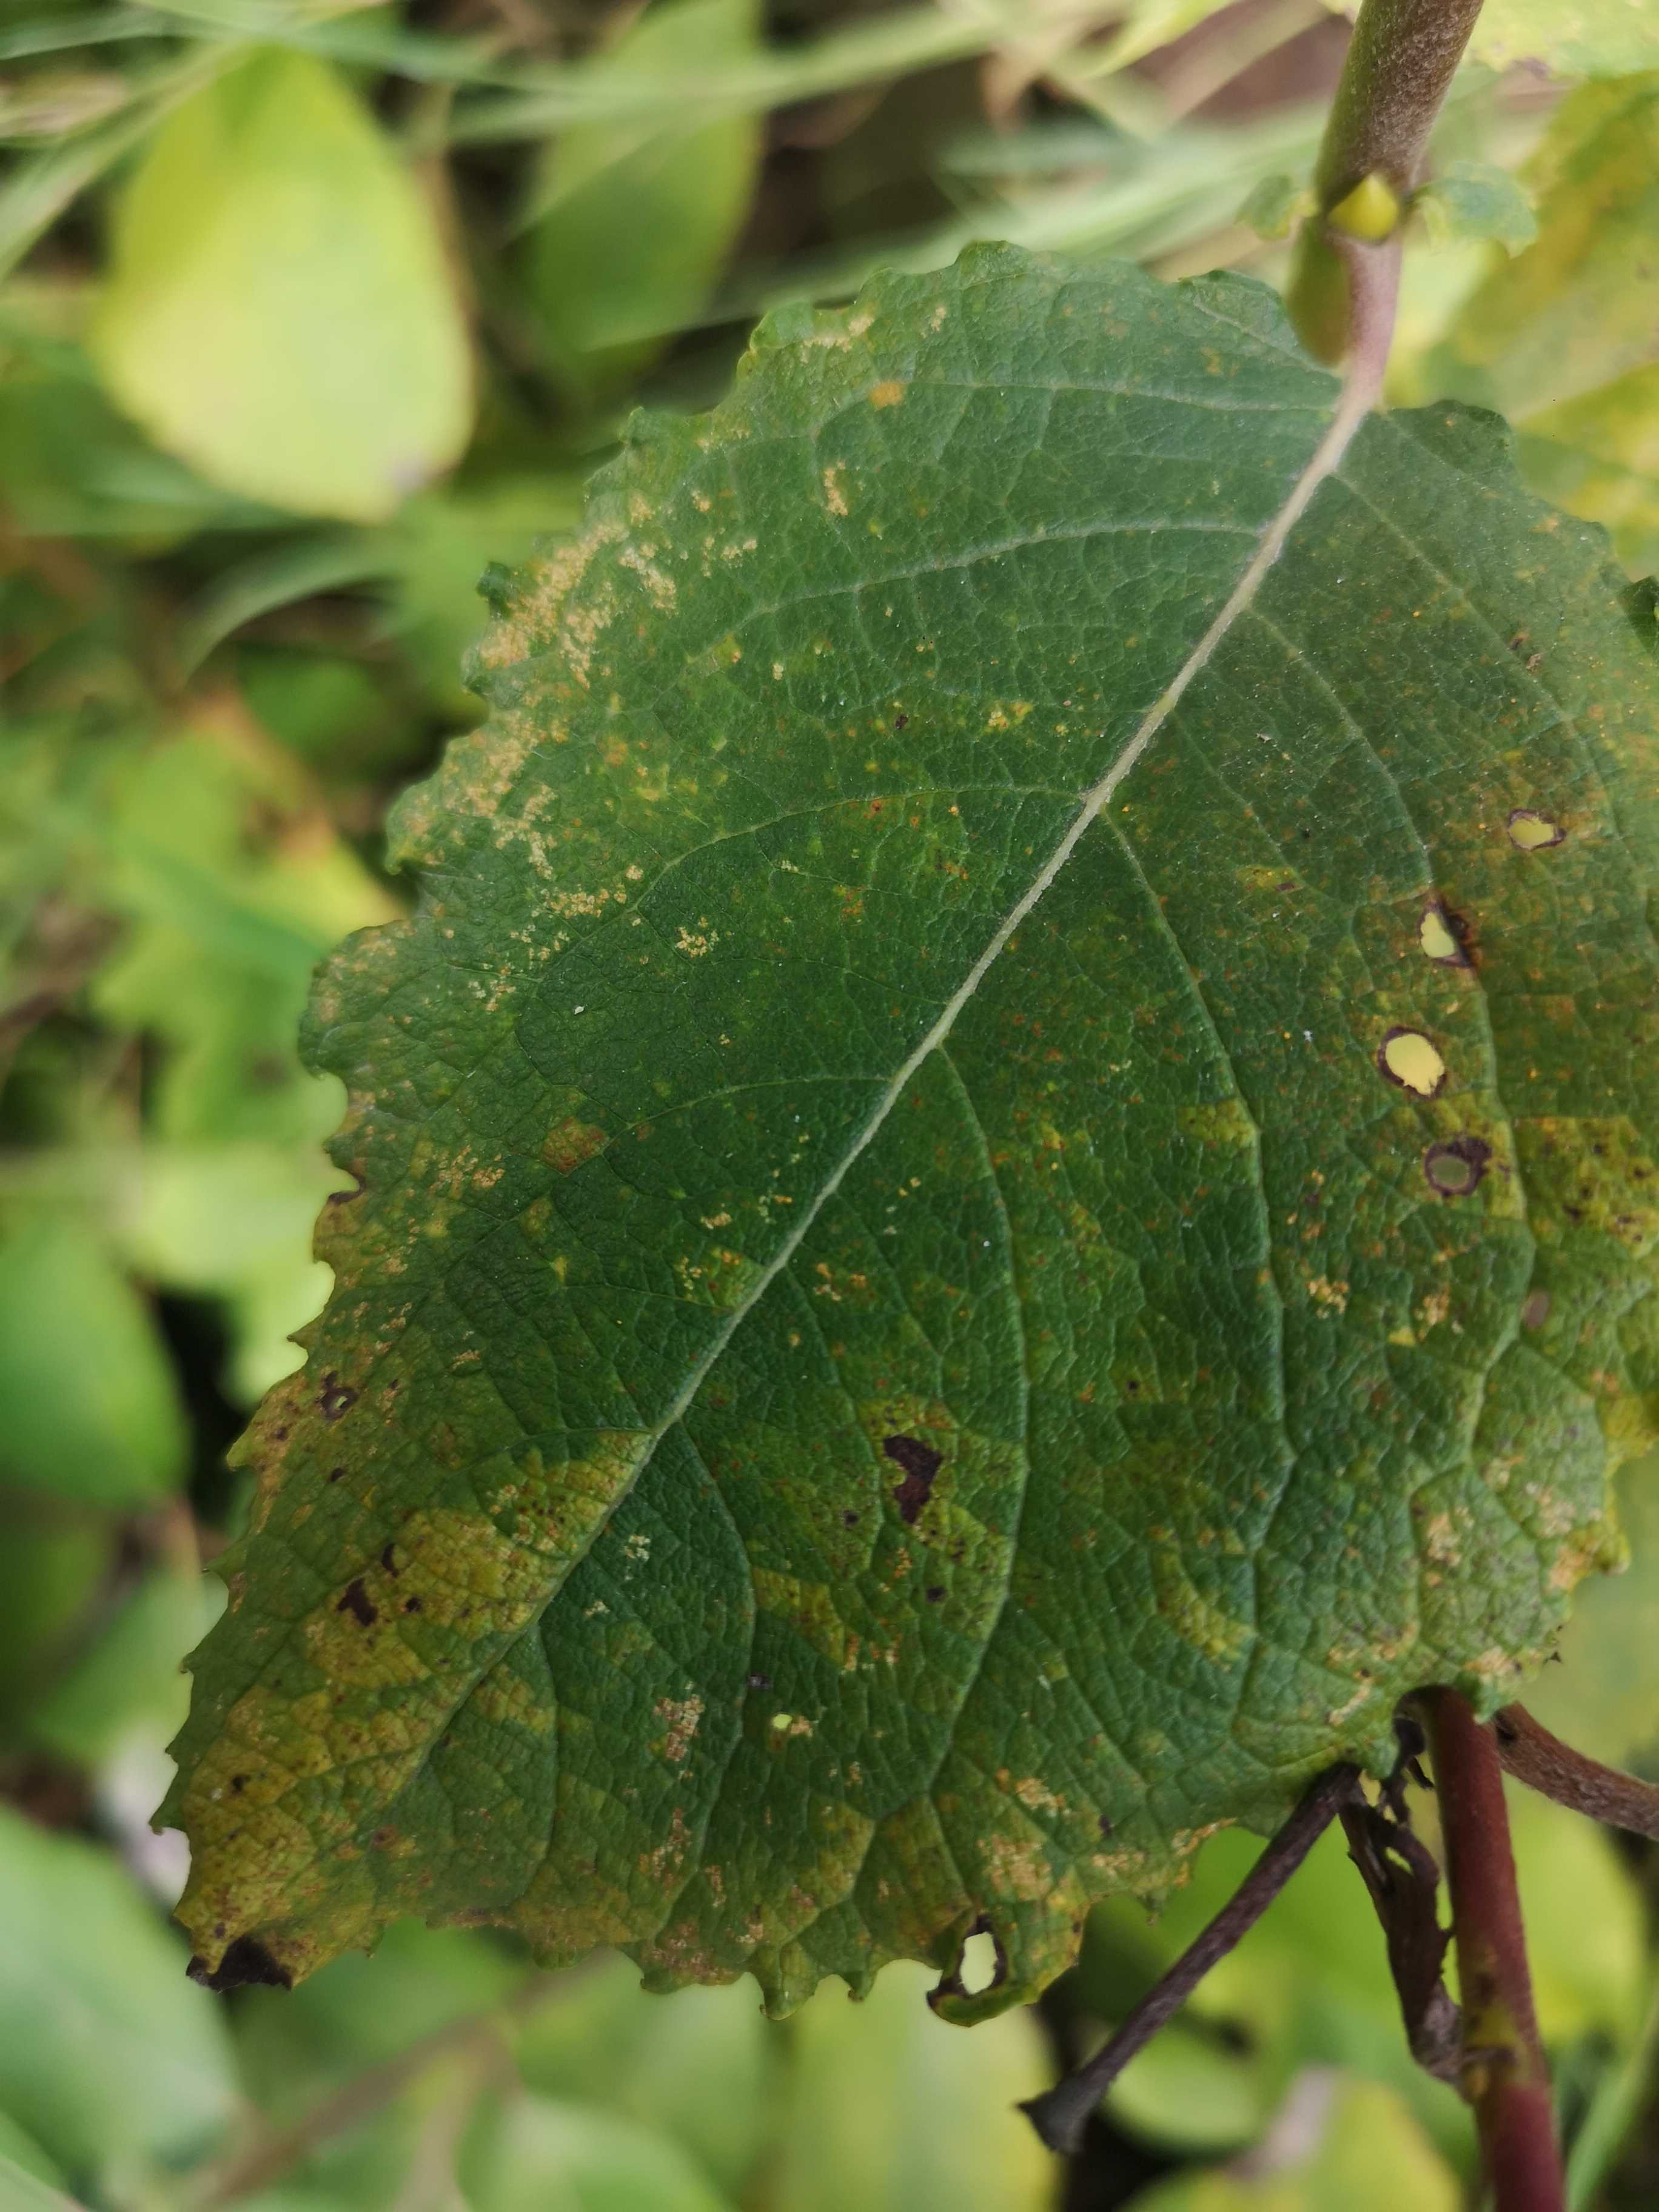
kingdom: Fungi
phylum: Basidiomycota
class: Pucciniomycetes
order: Pucciniales
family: Melampsoraceae
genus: Melampsora
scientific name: Melampsora epitea
